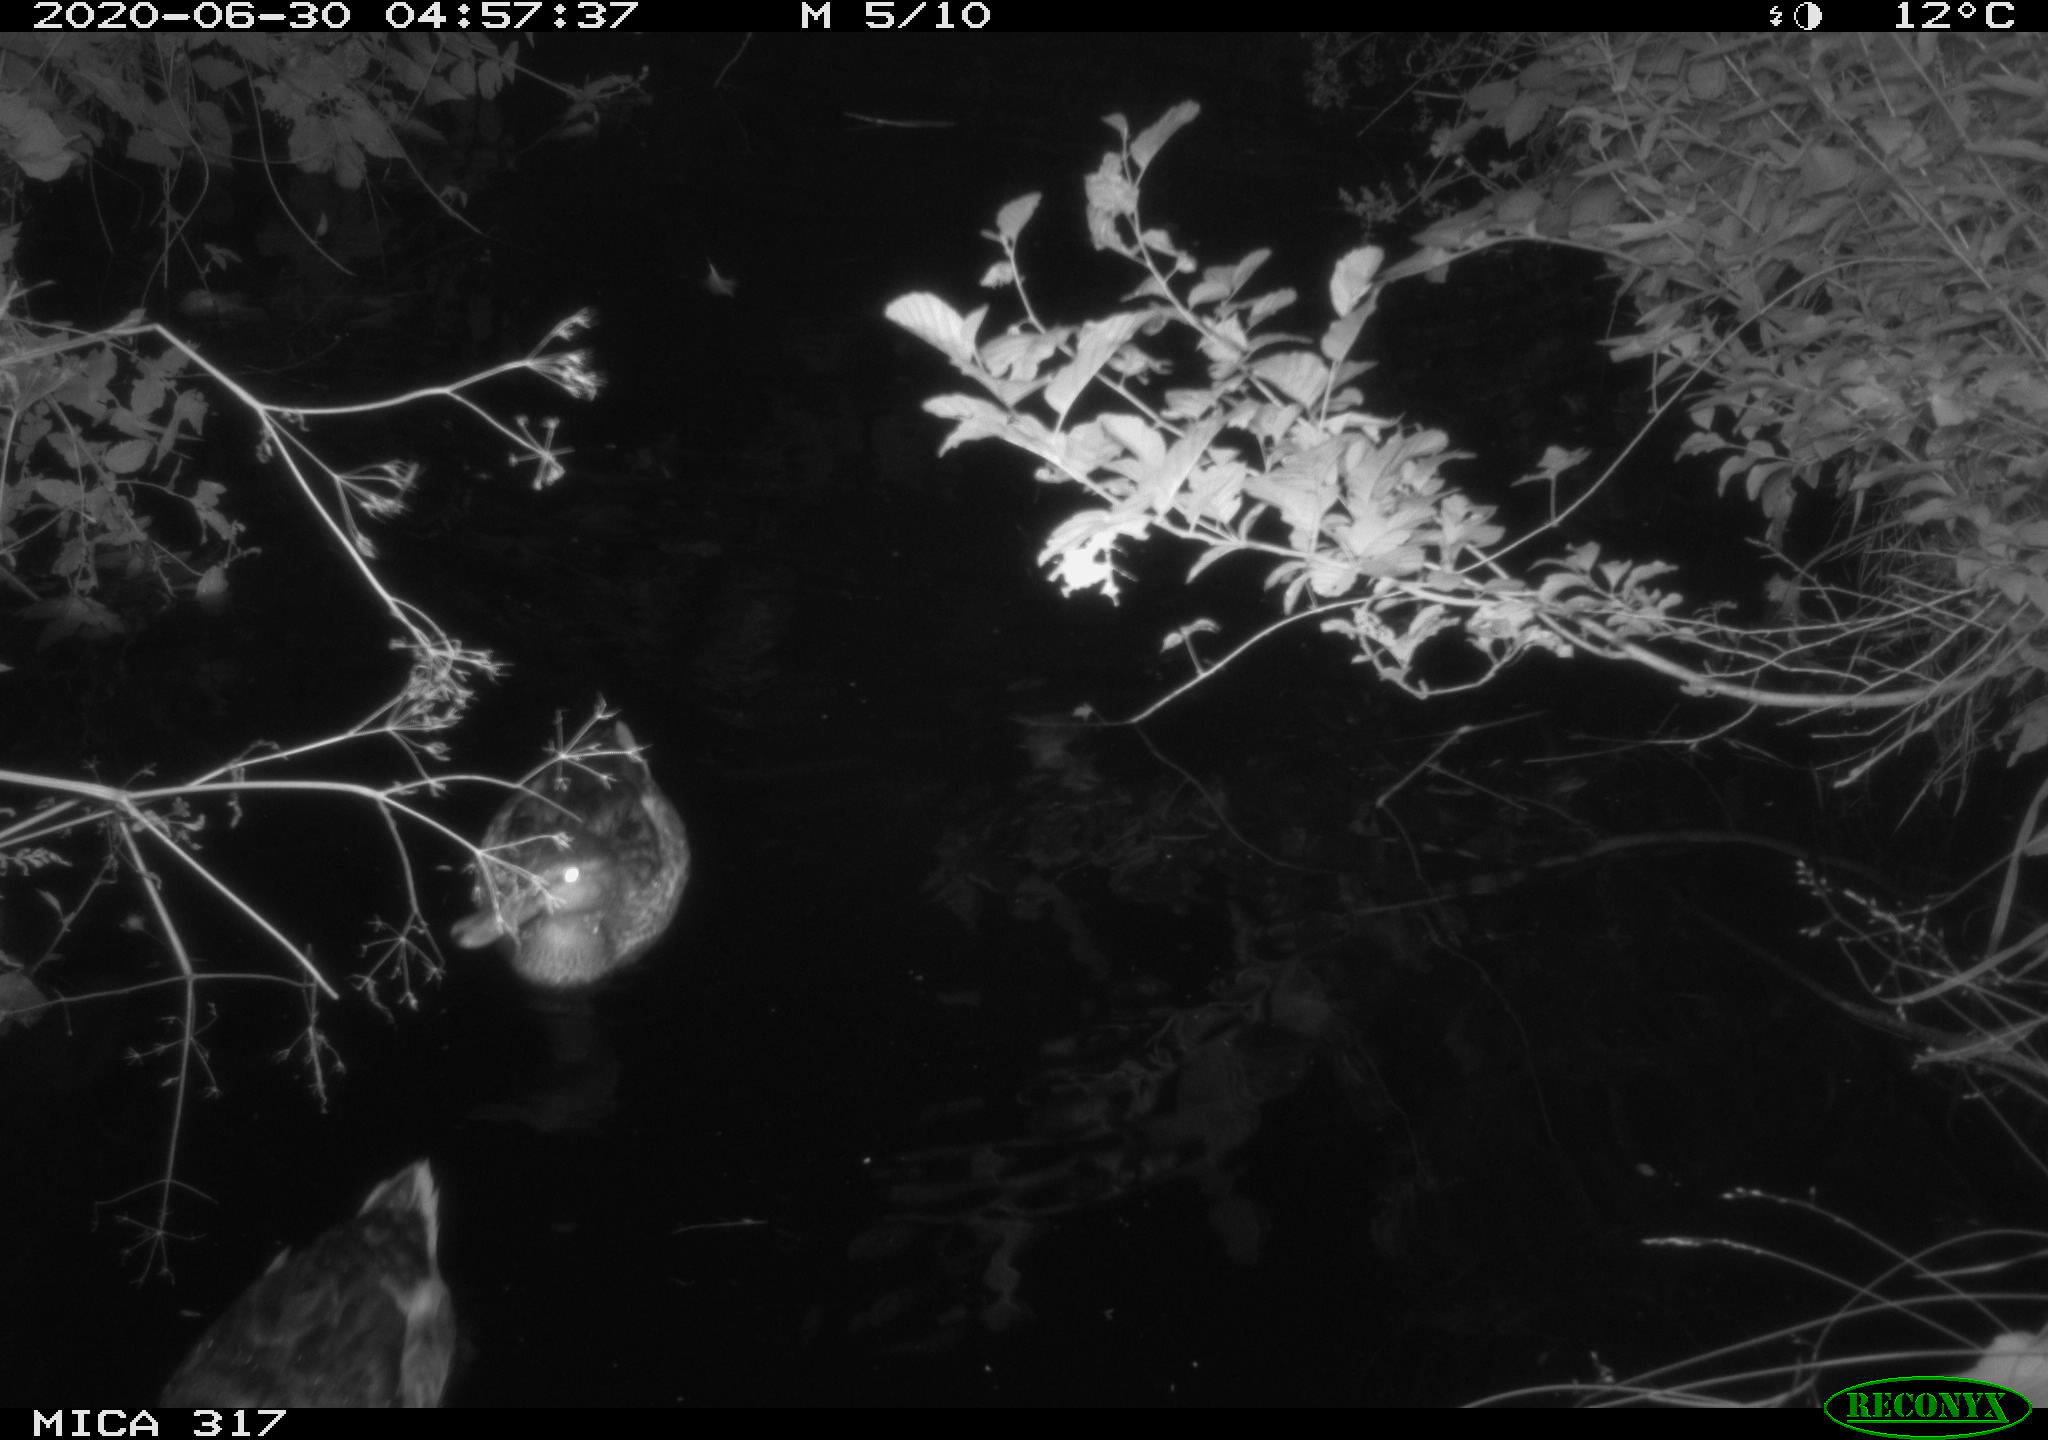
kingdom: Animalia
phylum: Chordata
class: Aves
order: Anseriformes
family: Anatidae
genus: Anas
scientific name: Anas platyrhynchos
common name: Mallard
